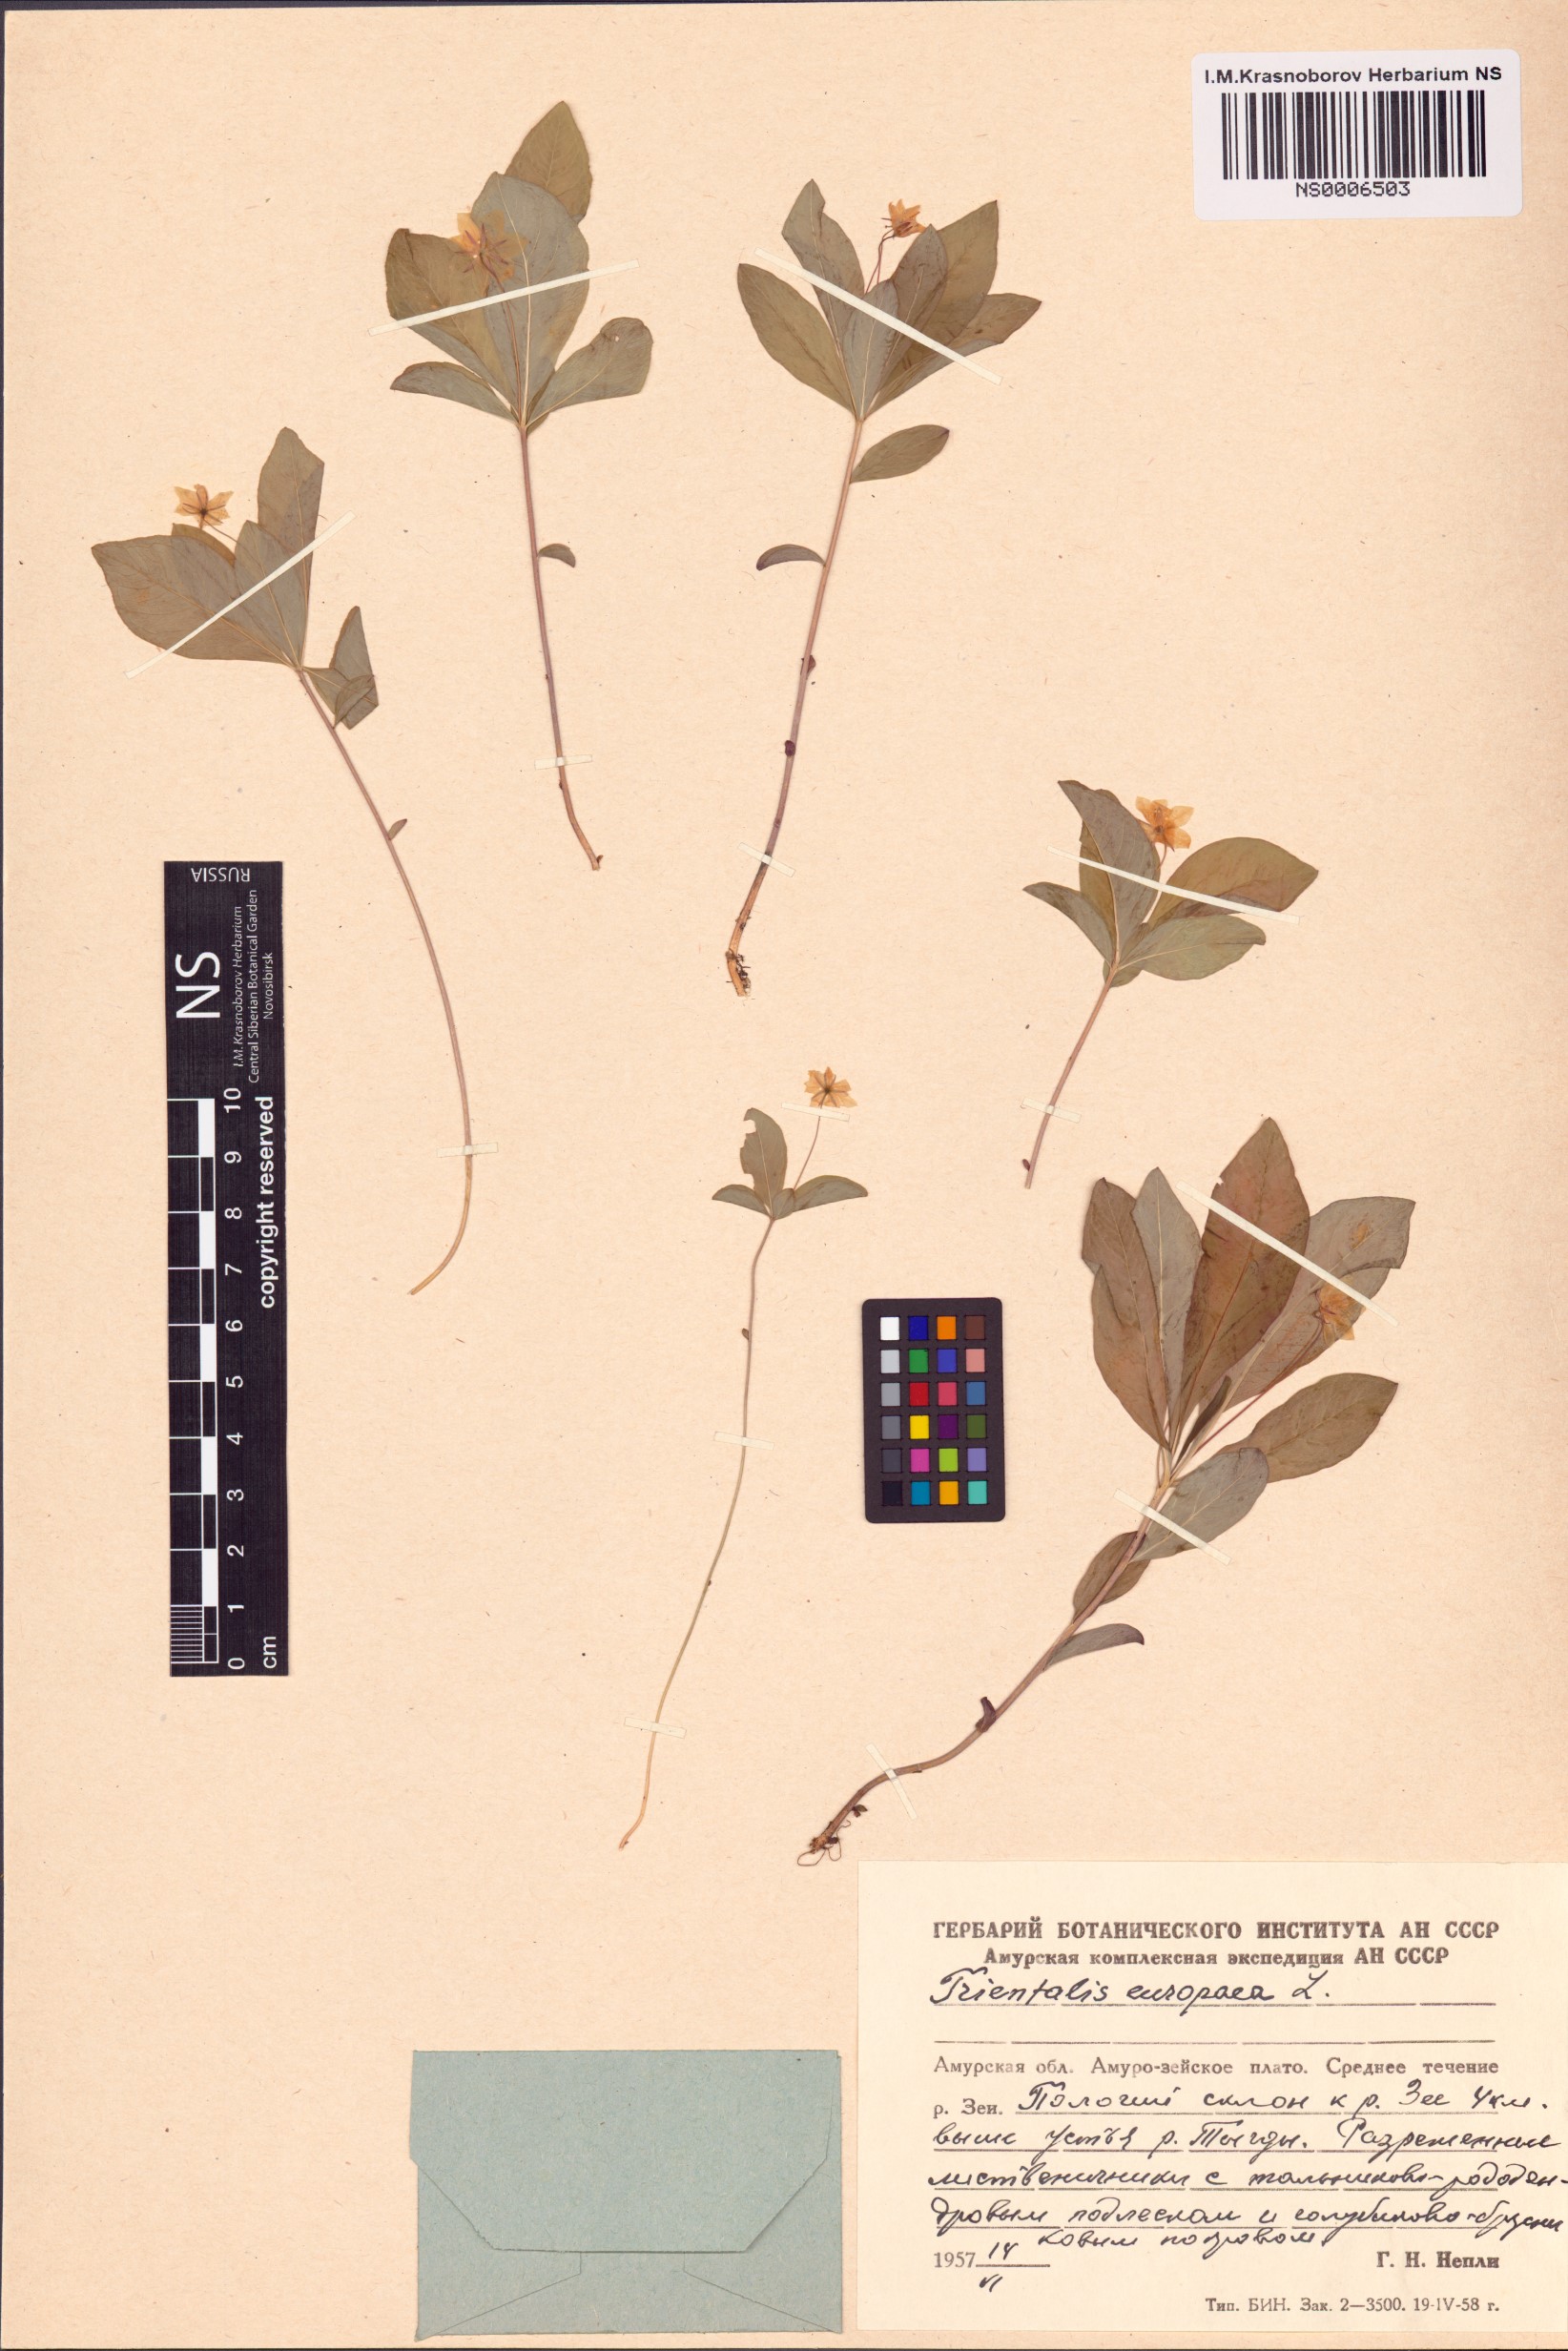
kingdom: Plantae
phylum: Tracheophyta
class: Magnoliopsida
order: Ericales
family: Primulaceae
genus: Lysimachia
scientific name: Lysimachia europaea
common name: Arctic starflower
